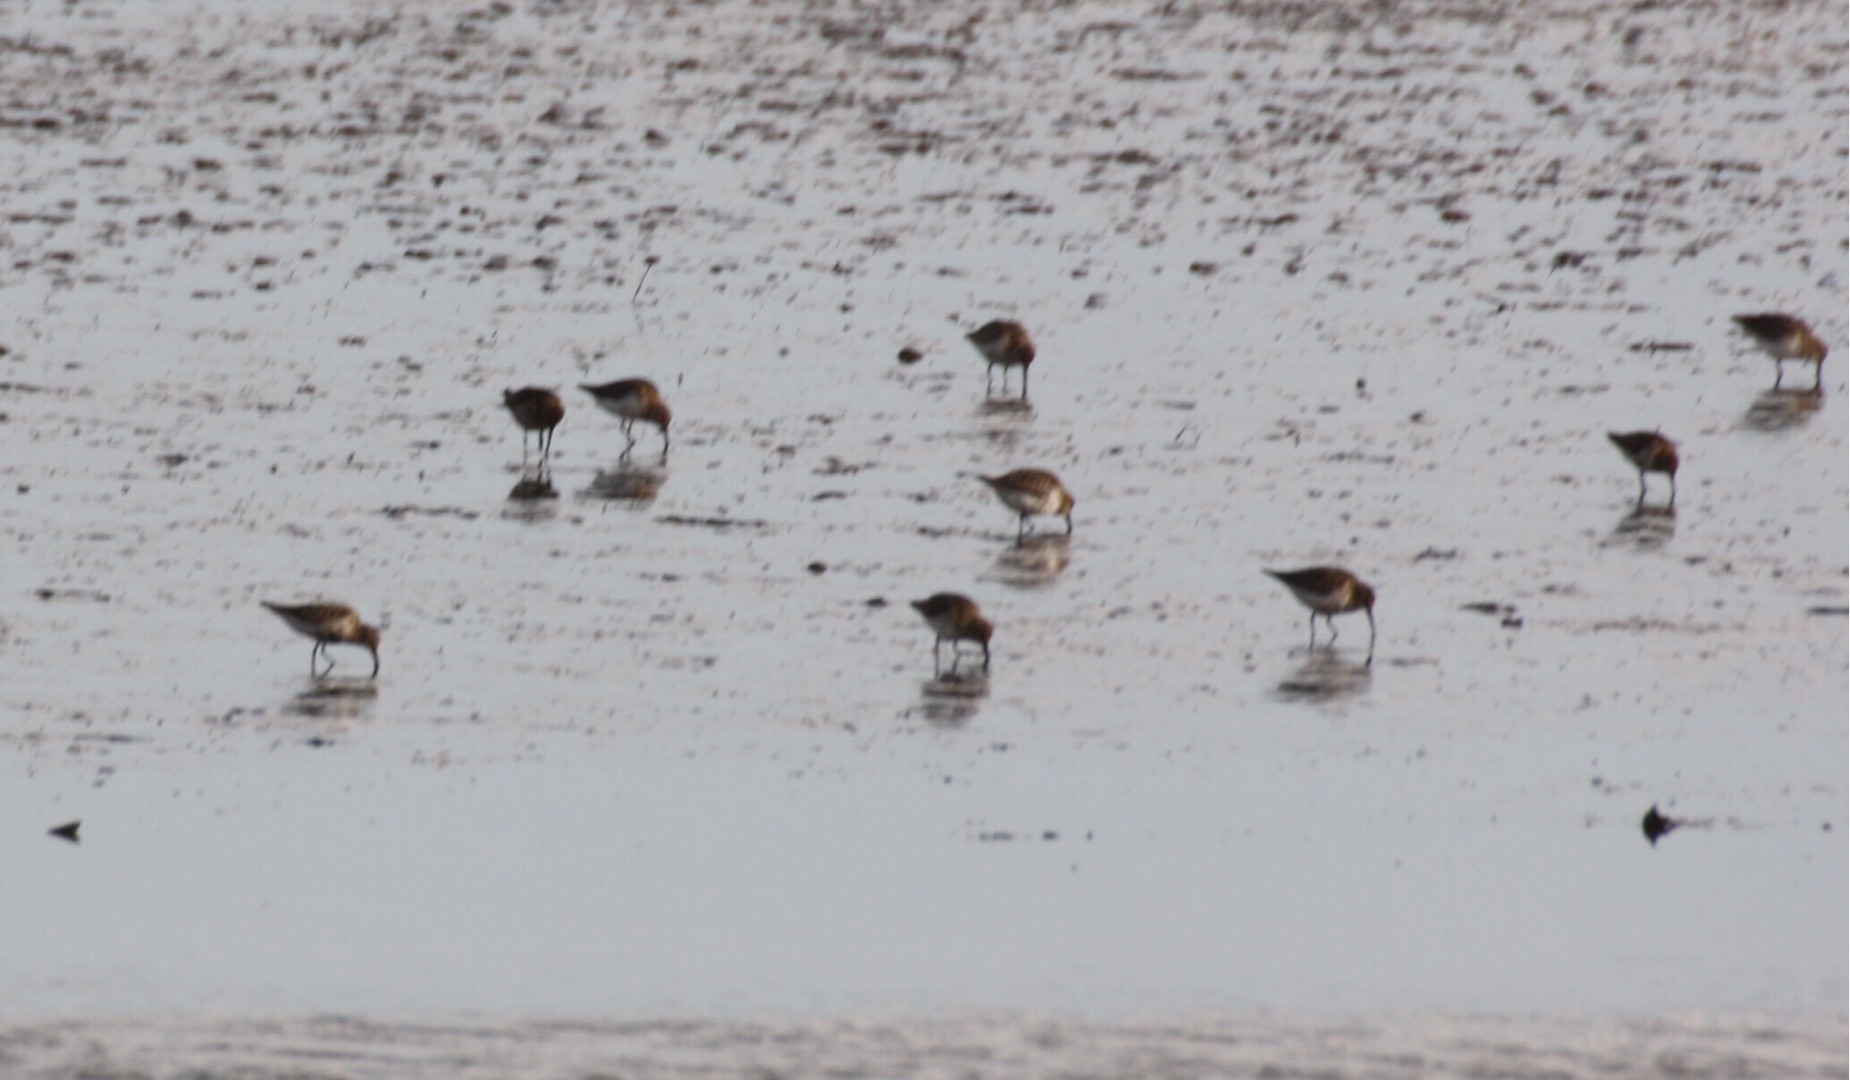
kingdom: Animalia
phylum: Chordata
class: Aves
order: Charadriiformes
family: Scolopacidae
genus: Calidris
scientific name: Calidris alpina
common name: Almindelig ryle
